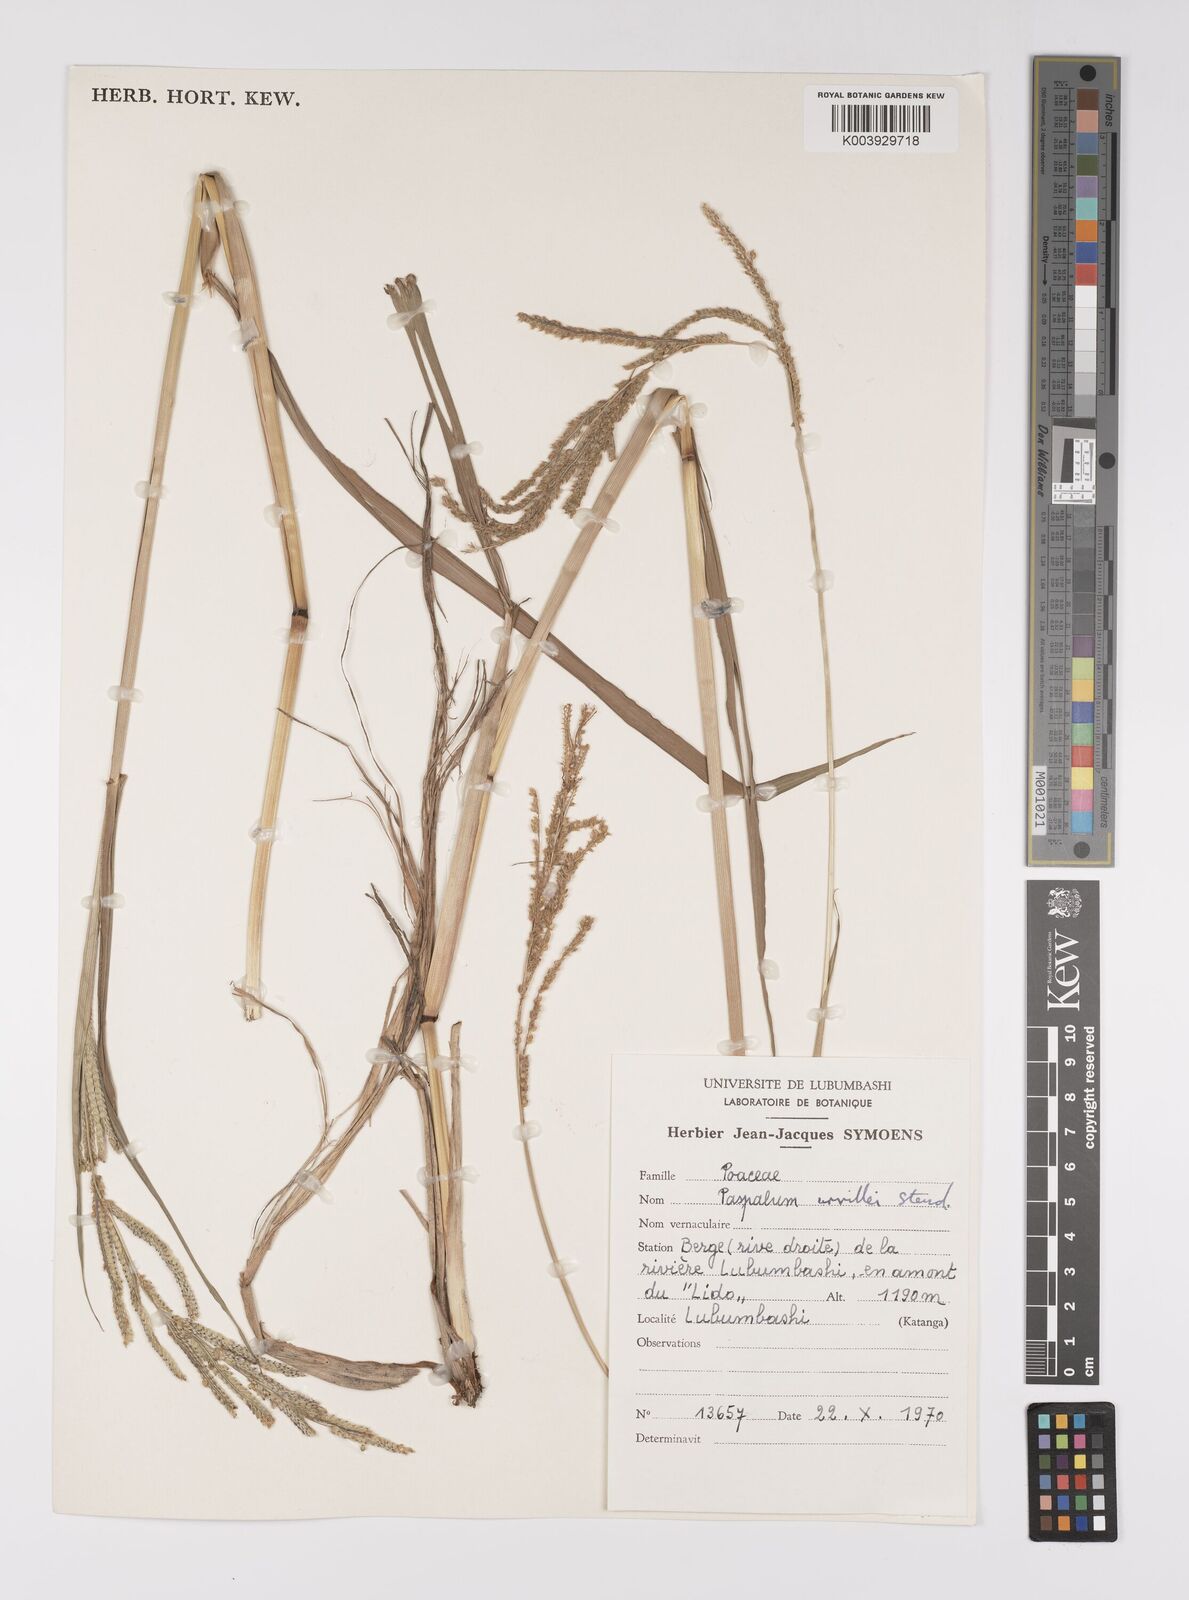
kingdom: Plantae
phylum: Tracheophyta
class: Liliopsida
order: Poales
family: Poaceae
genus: Paspalum
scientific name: Paspalum urvillei
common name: Vasey's grass
